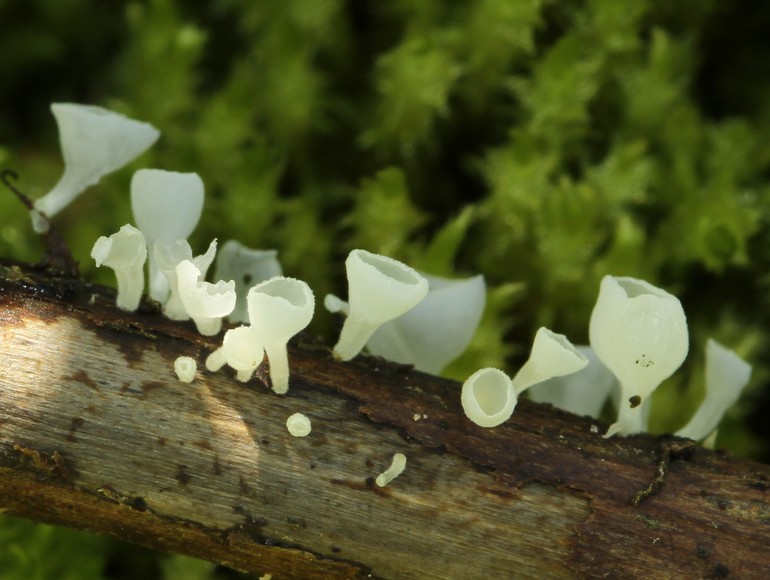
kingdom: Fungi
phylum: Basidiomycota
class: Agaricomycetes
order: Agaricales
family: Marasmiaceae
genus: Calyptella
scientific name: Calyptella gibbosa
